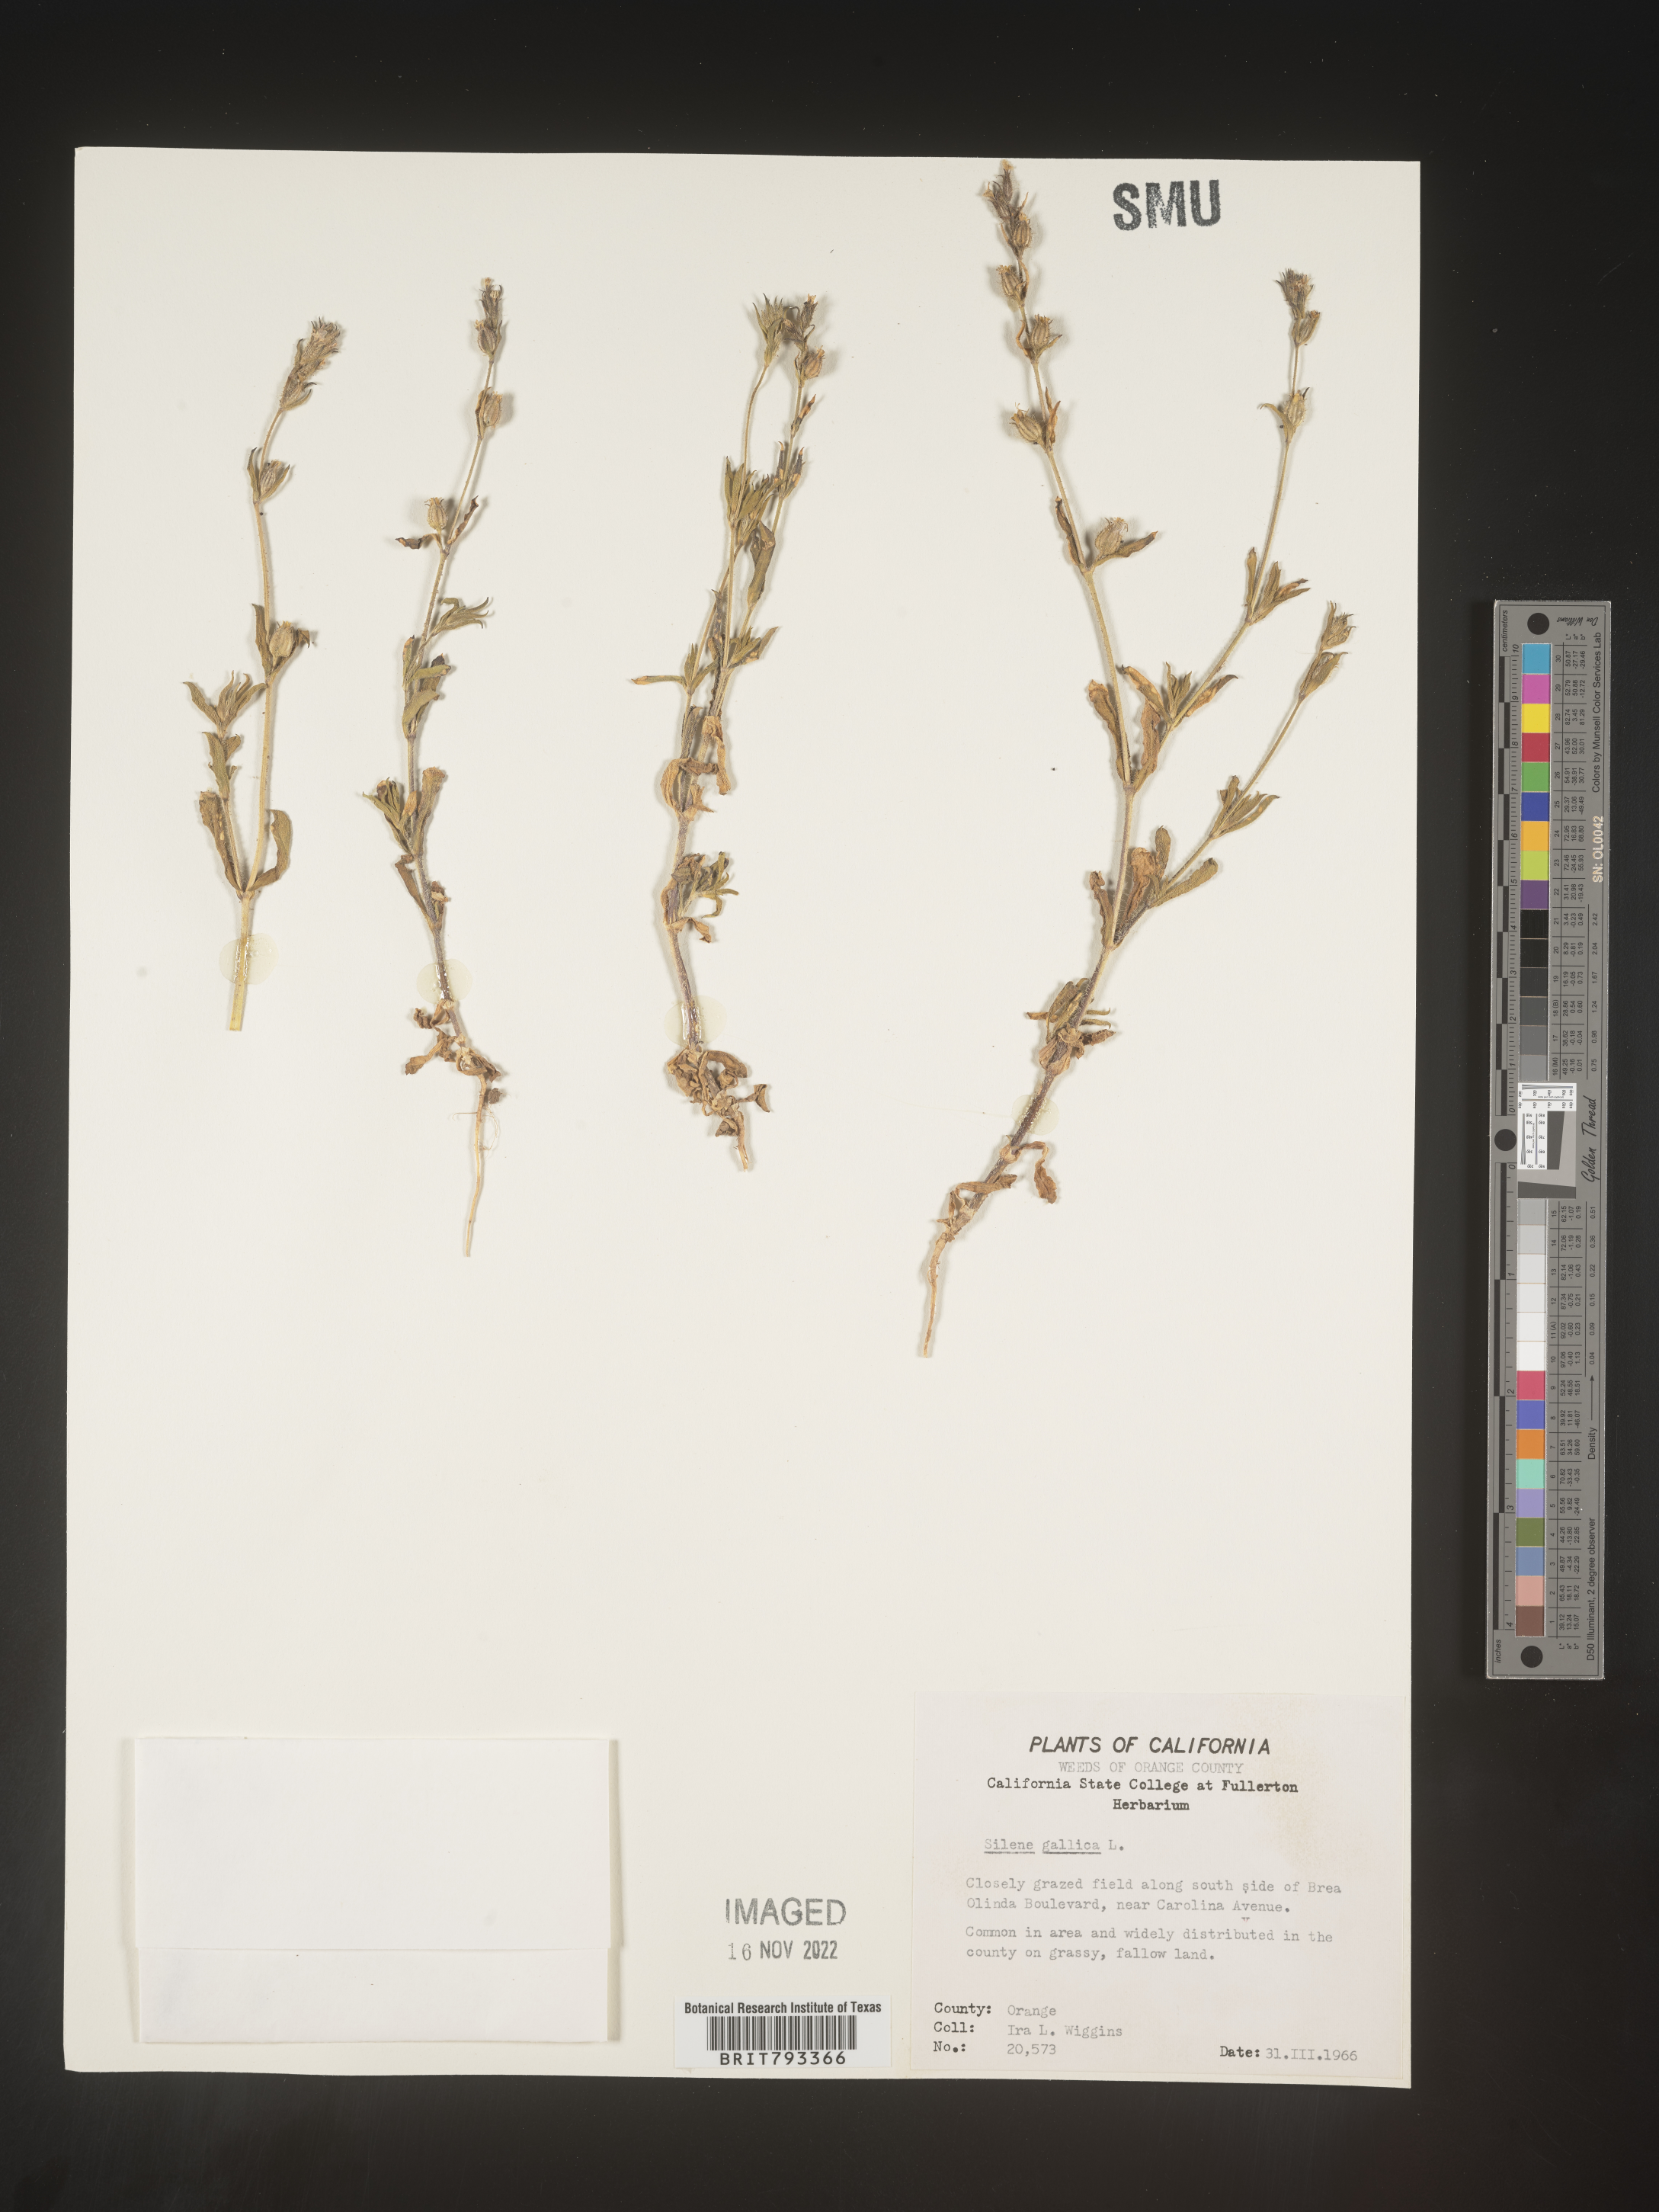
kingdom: Plantae
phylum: Tracheophyta
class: Magnoliopsida
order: Caryophyllales
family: Caryophyllaceae
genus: Silene
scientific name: Silene gallica
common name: Small-flowered catchfly
